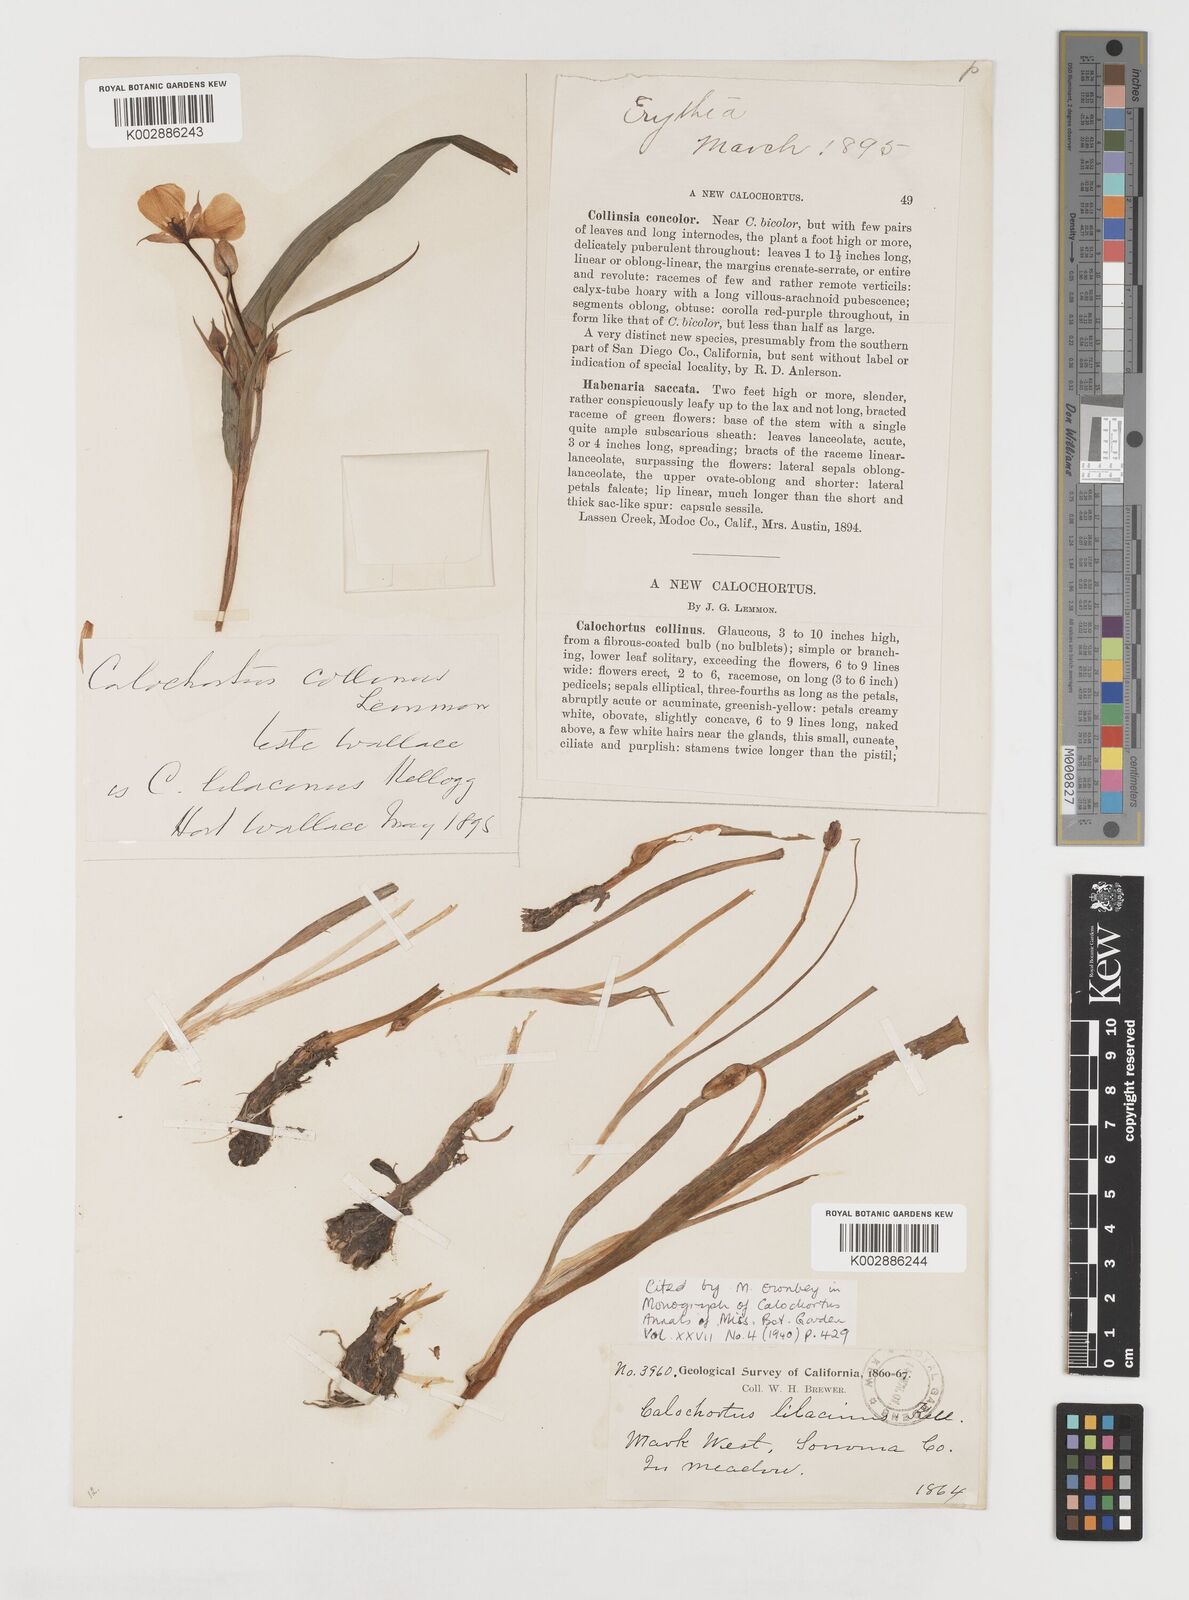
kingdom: Plantae
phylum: Tracheophyta
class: Liliopsida
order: Liliales
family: Liliaceae
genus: Calochortus
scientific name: Calochortus uniflorus
